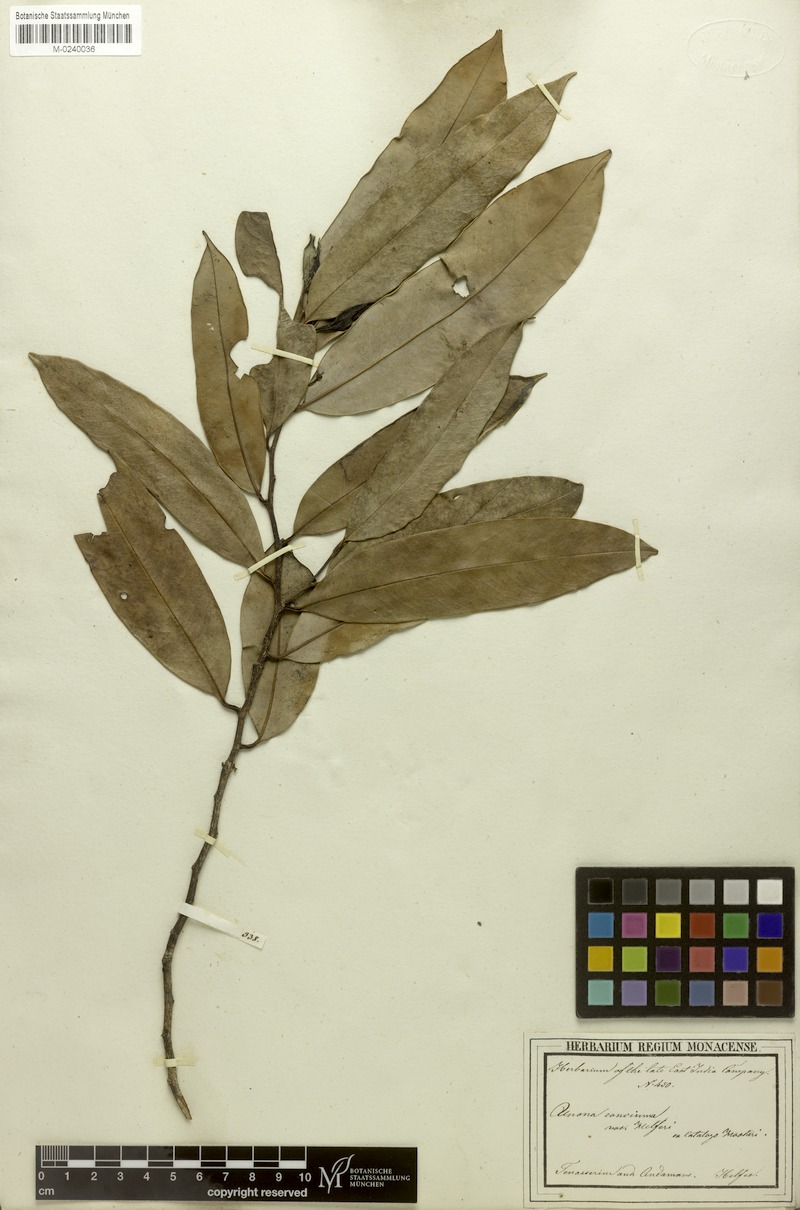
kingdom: Plantae
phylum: Tracheophyta
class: Magnoliopsida
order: Magnoliales
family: Annonaceae
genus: Marsypopetalum
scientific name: Marsypopetalum modestum
